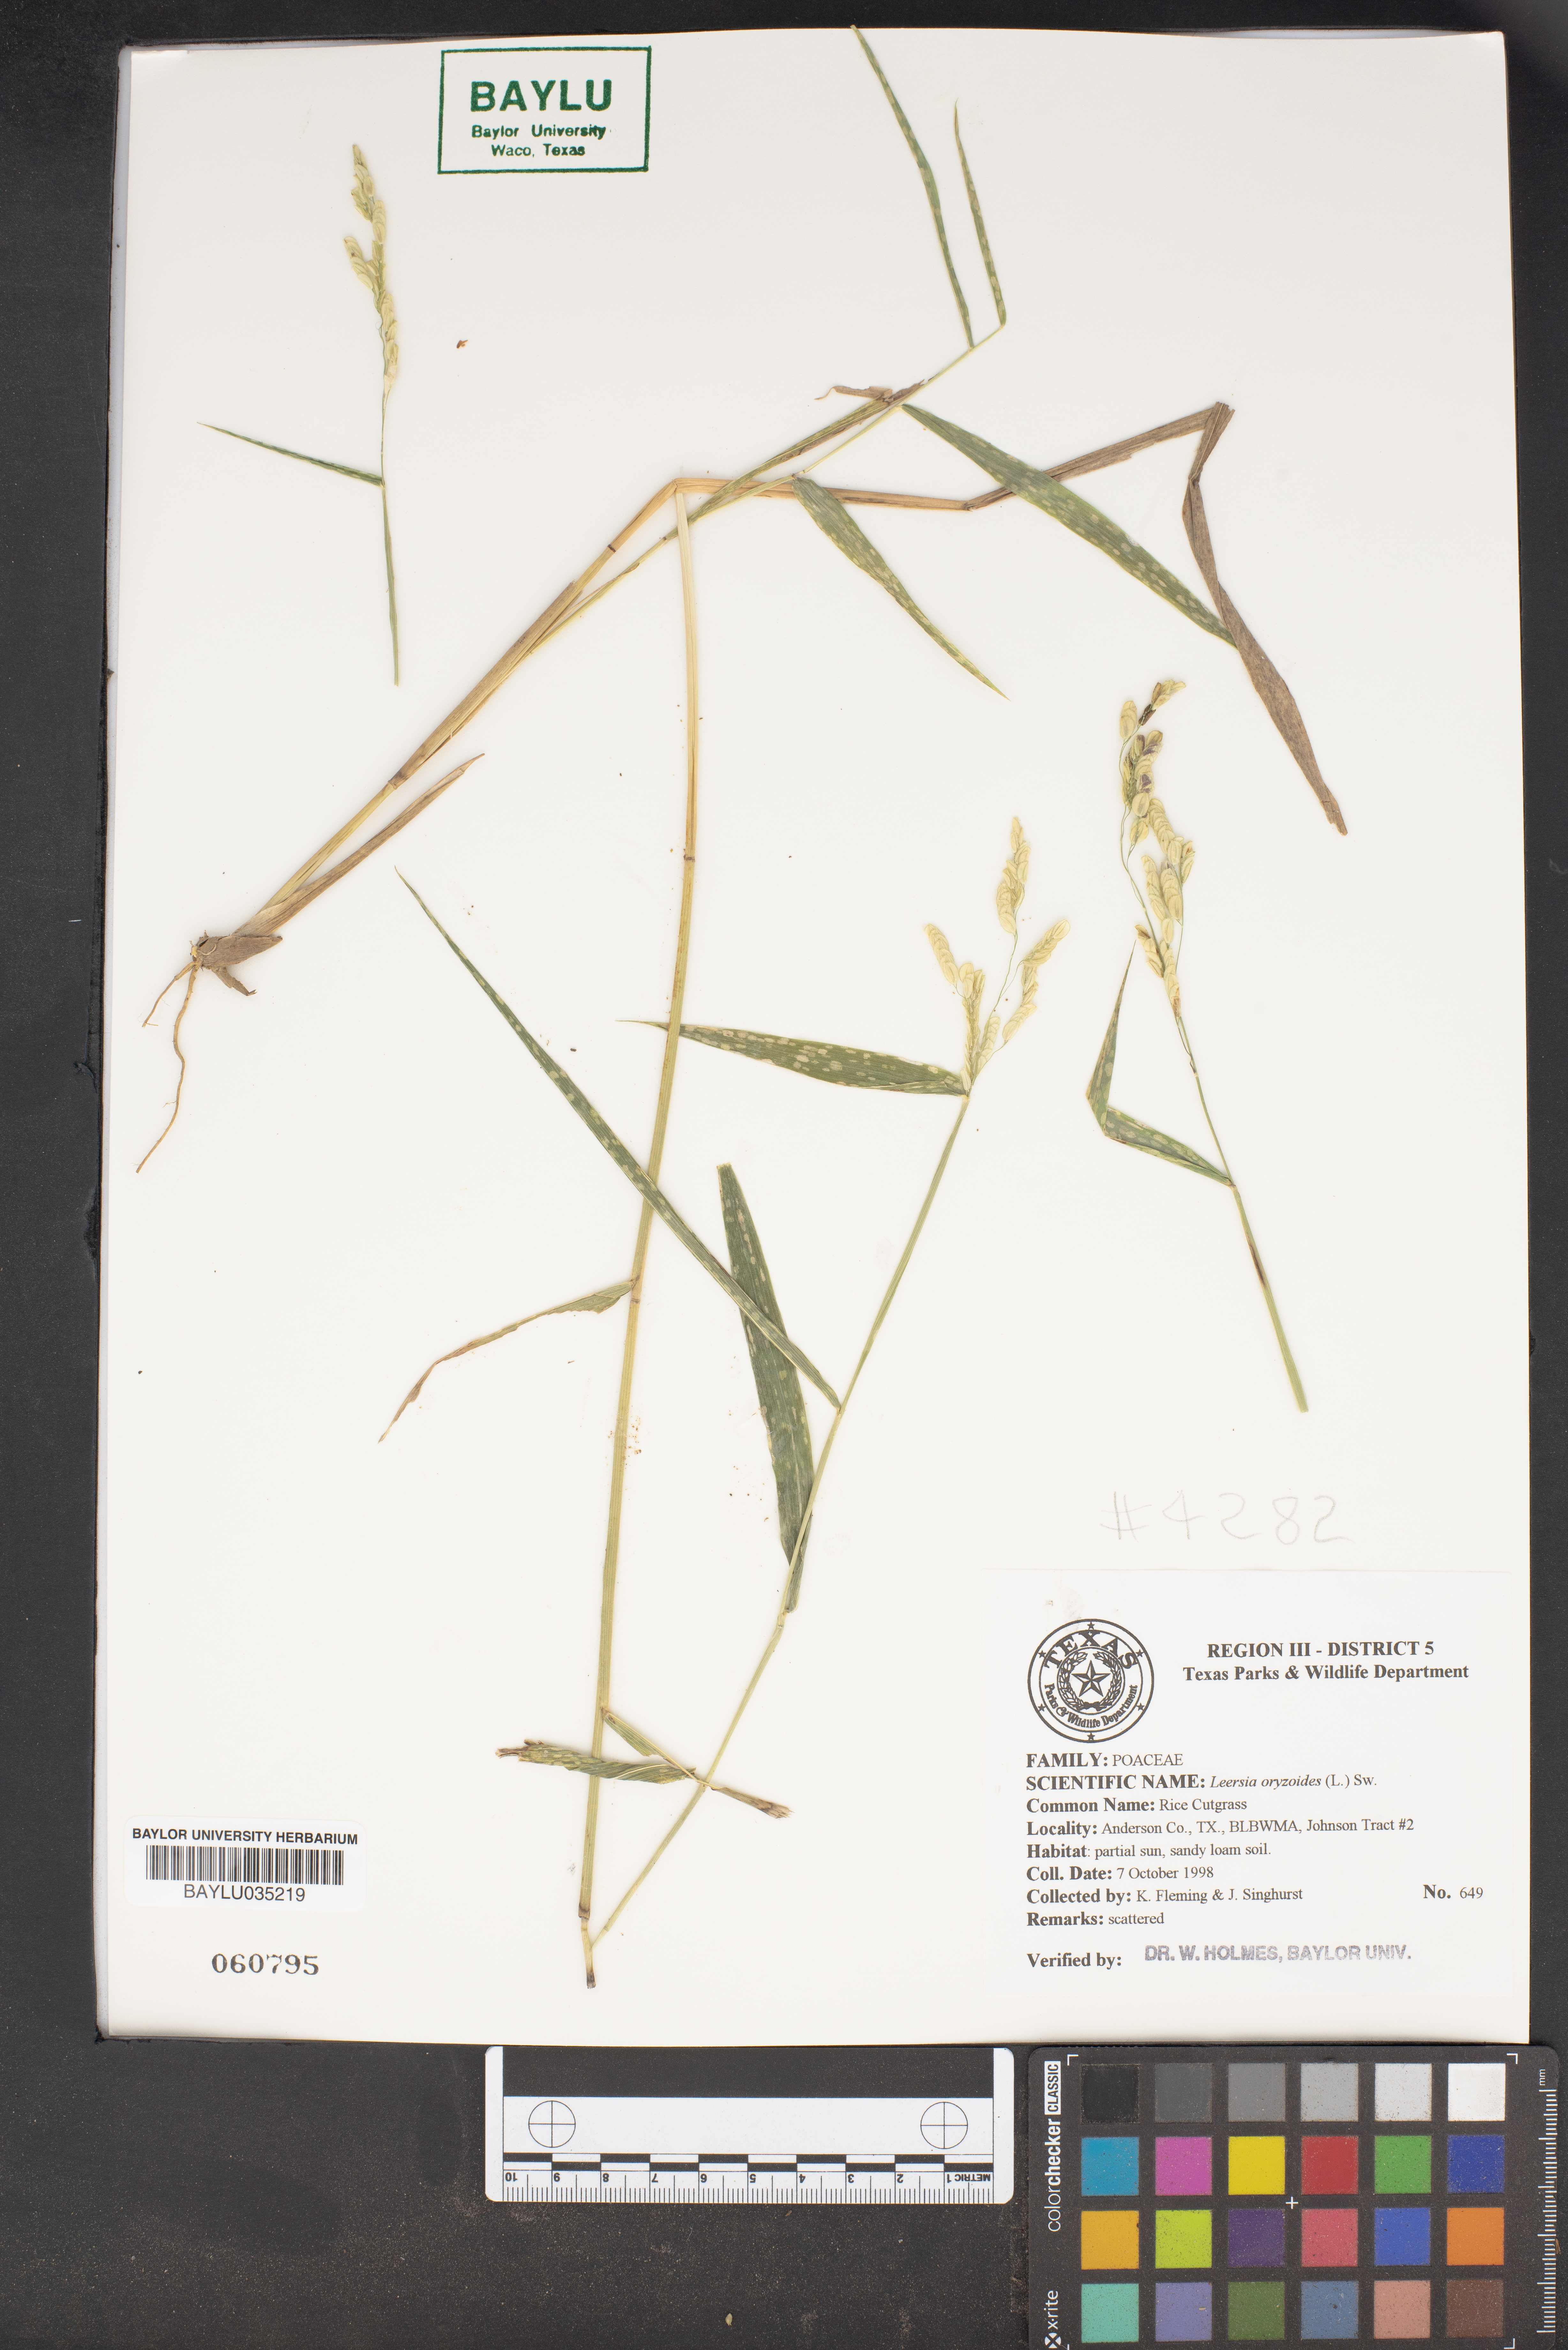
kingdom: Plantae
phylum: Tracheophyta
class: Liliopsida
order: Poales
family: Poaceae
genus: Leersia
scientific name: Leersia oryzoides
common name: Cut-grass
